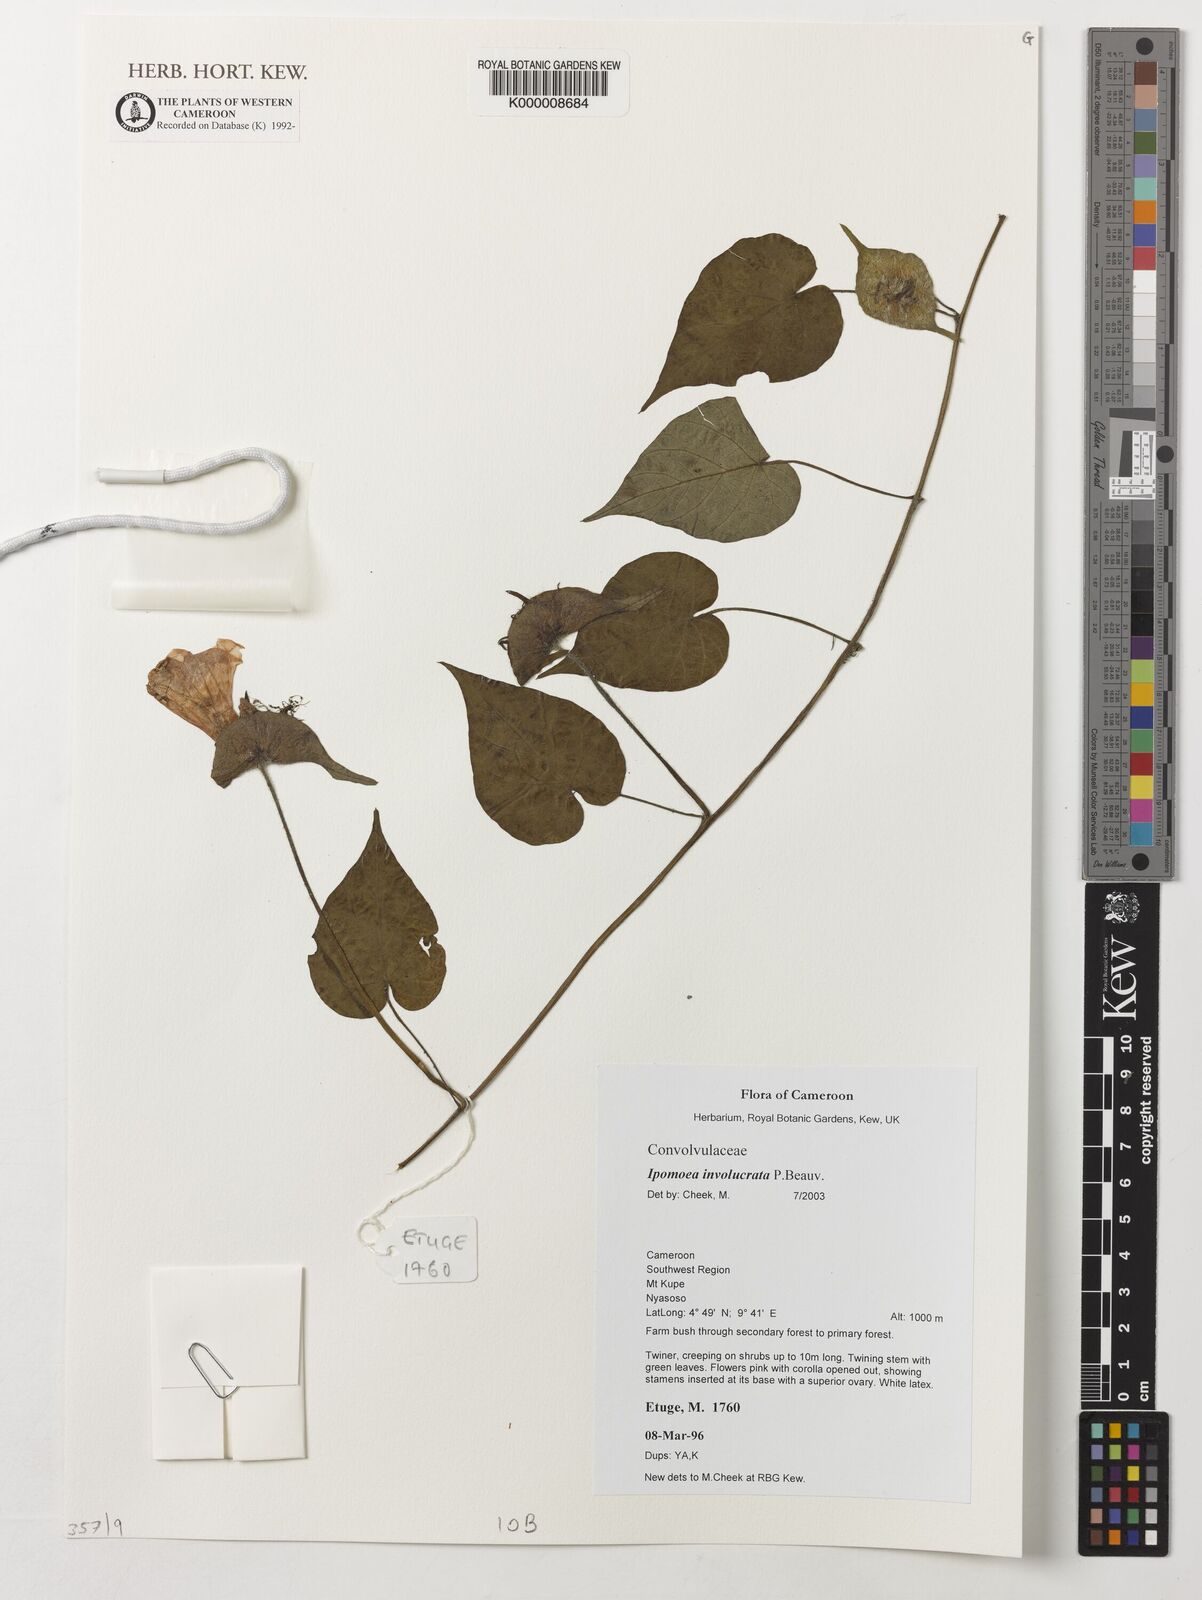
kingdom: Plantae
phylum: Tracheophyta
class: Magnoliopsida
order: Solanales
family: Convolvulaceae
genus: Ipomoea
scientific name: Ipomoea involucrata
